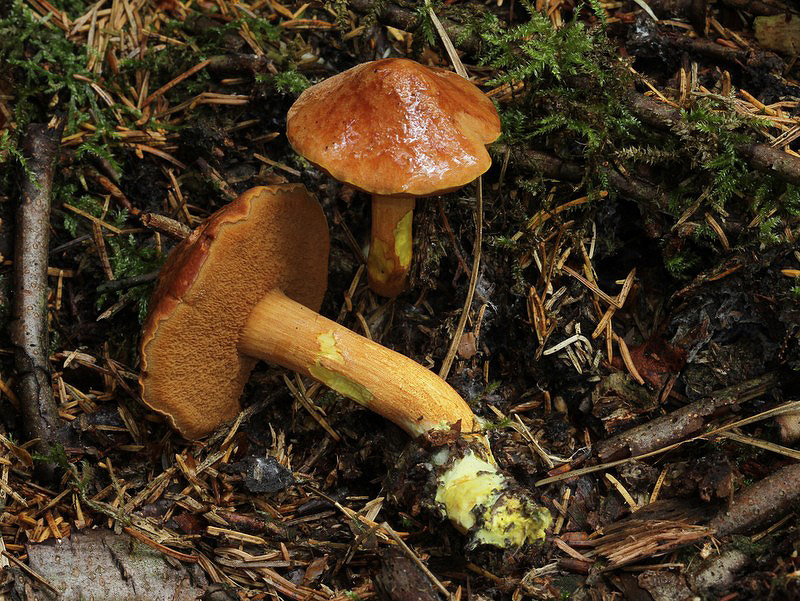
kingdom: Fungi
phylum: Basidiomycota
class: Agaricomycetes
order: Boletales
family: Boletaceae
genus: Chalciporus
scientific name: Chalciporus piperatus
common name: peberrørhat
